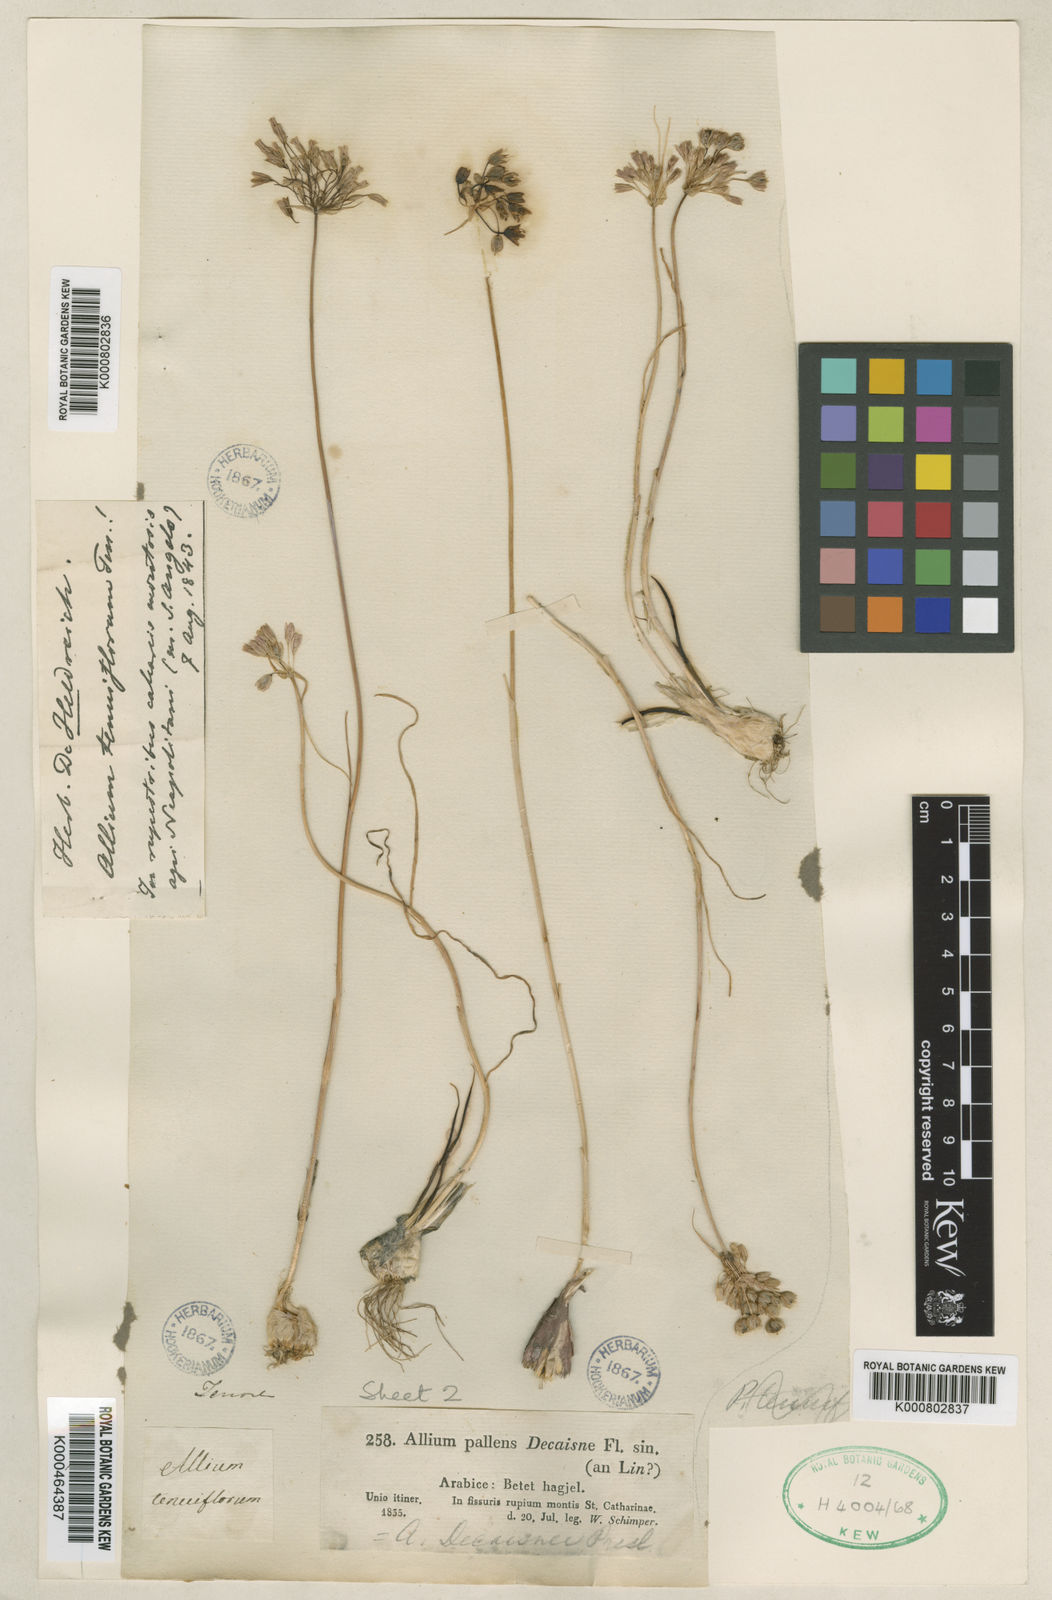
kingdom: Plantae
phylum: Tracheophyta
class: Liliopsida
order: Asparagales
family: Amaryllidaceae
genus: Allium
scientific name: Allium stamineum
